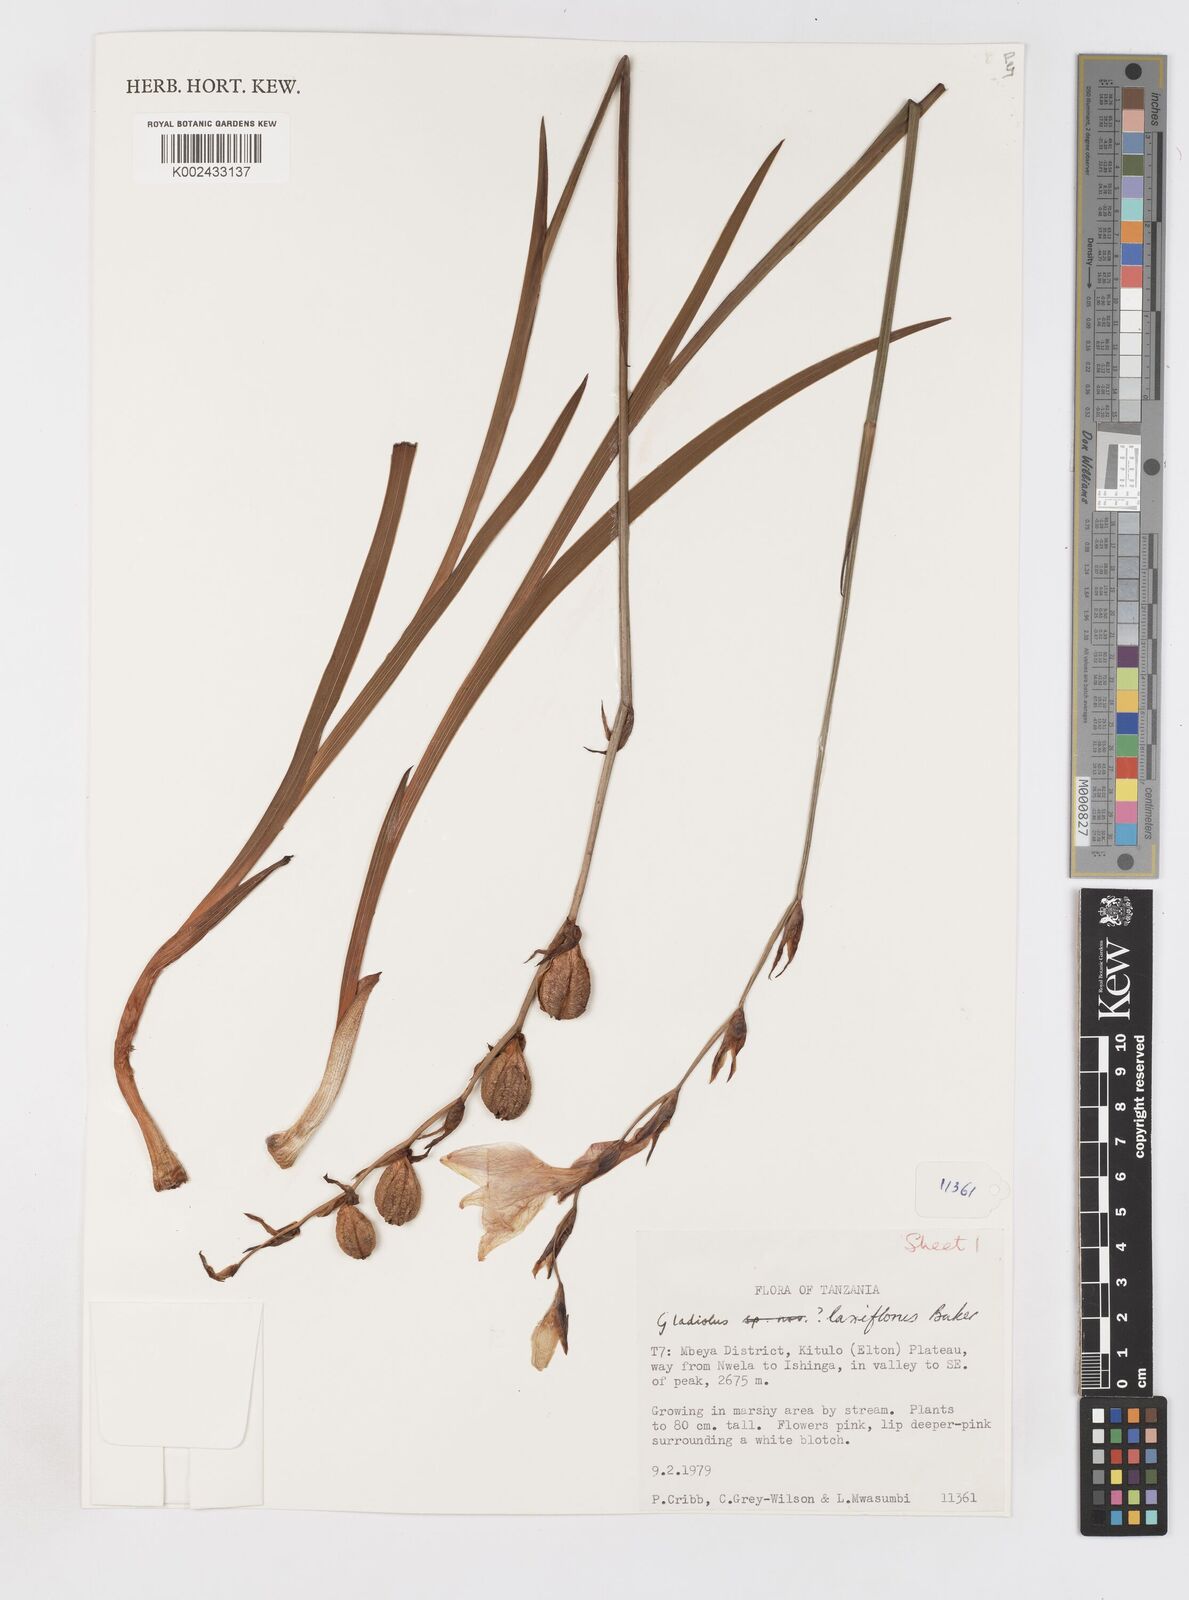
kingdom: Plantae
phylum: Tracheophyta
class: Liliopsida
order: Asparagales
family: Iridaceae
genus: Gladiolus
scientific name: Gladiolus laxiflorus
